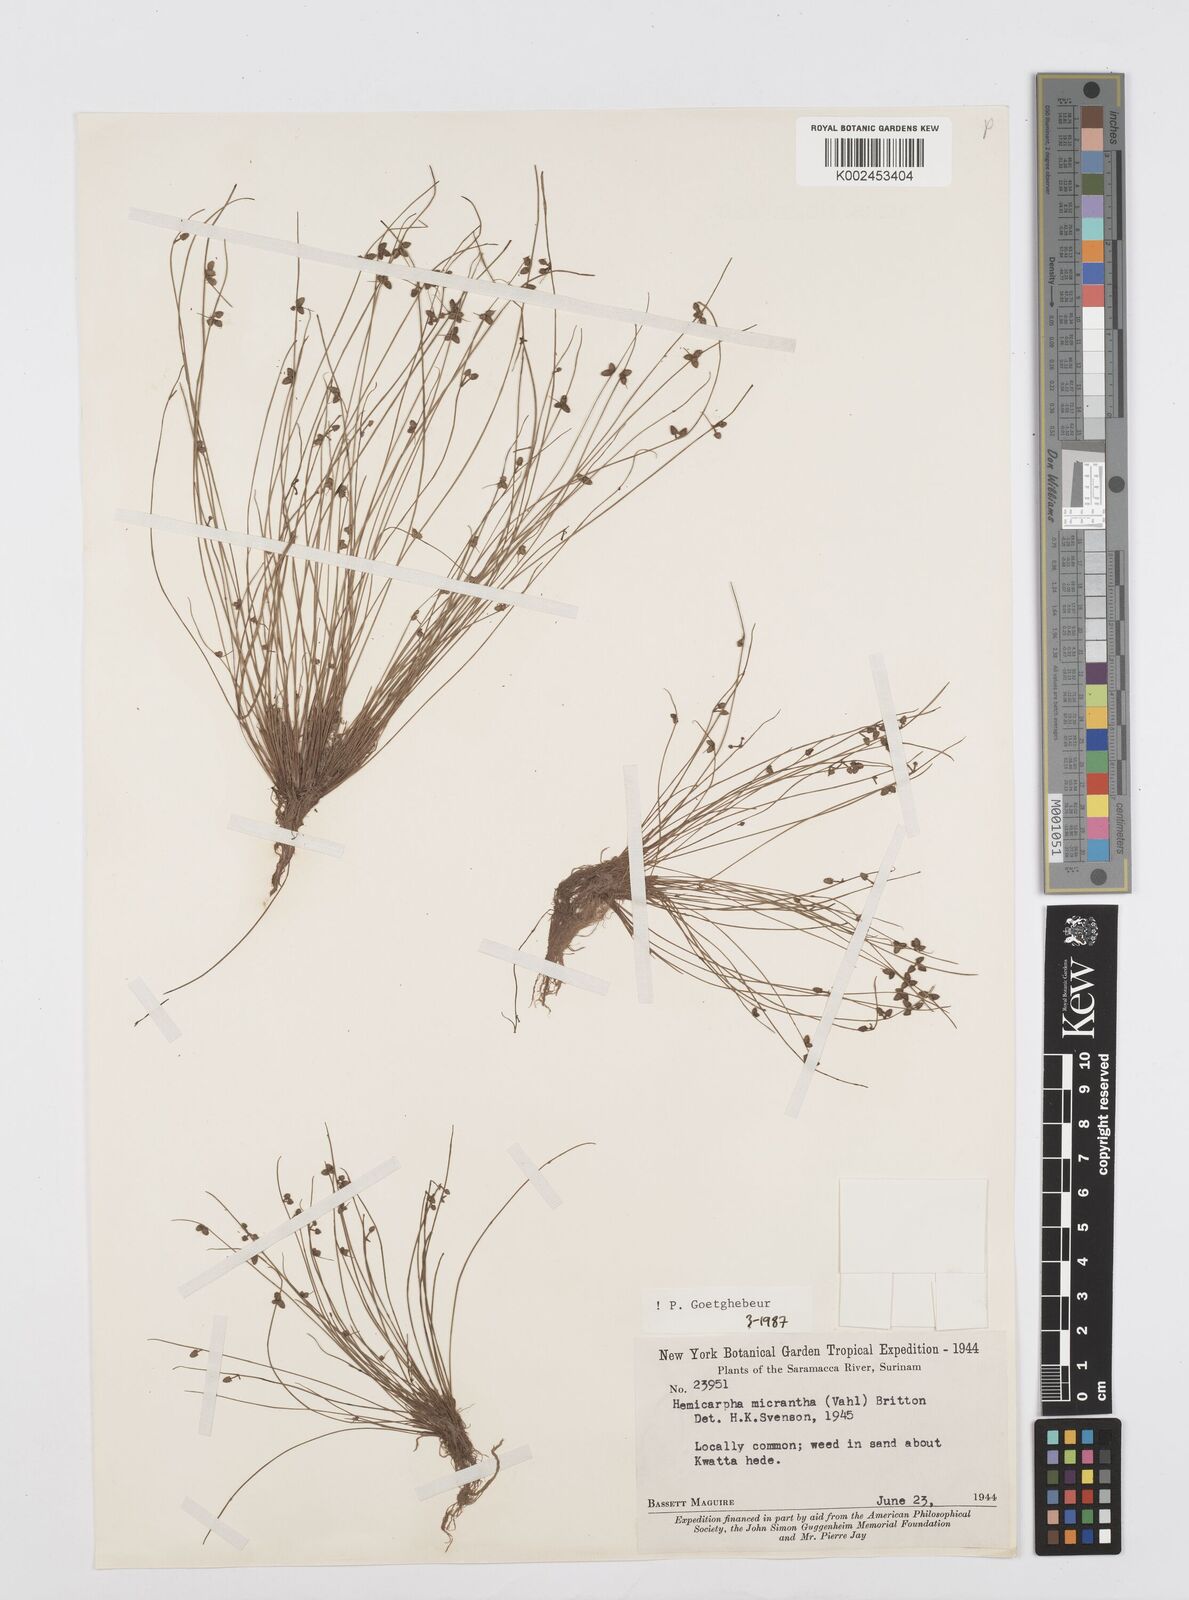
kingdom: Plantae
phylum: Tracheophyta
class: Liliopsida
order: Poales
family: Cyperaceae
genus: Cyperus
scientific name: Cyperus dentatus
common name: Dentate umbrella sedge
